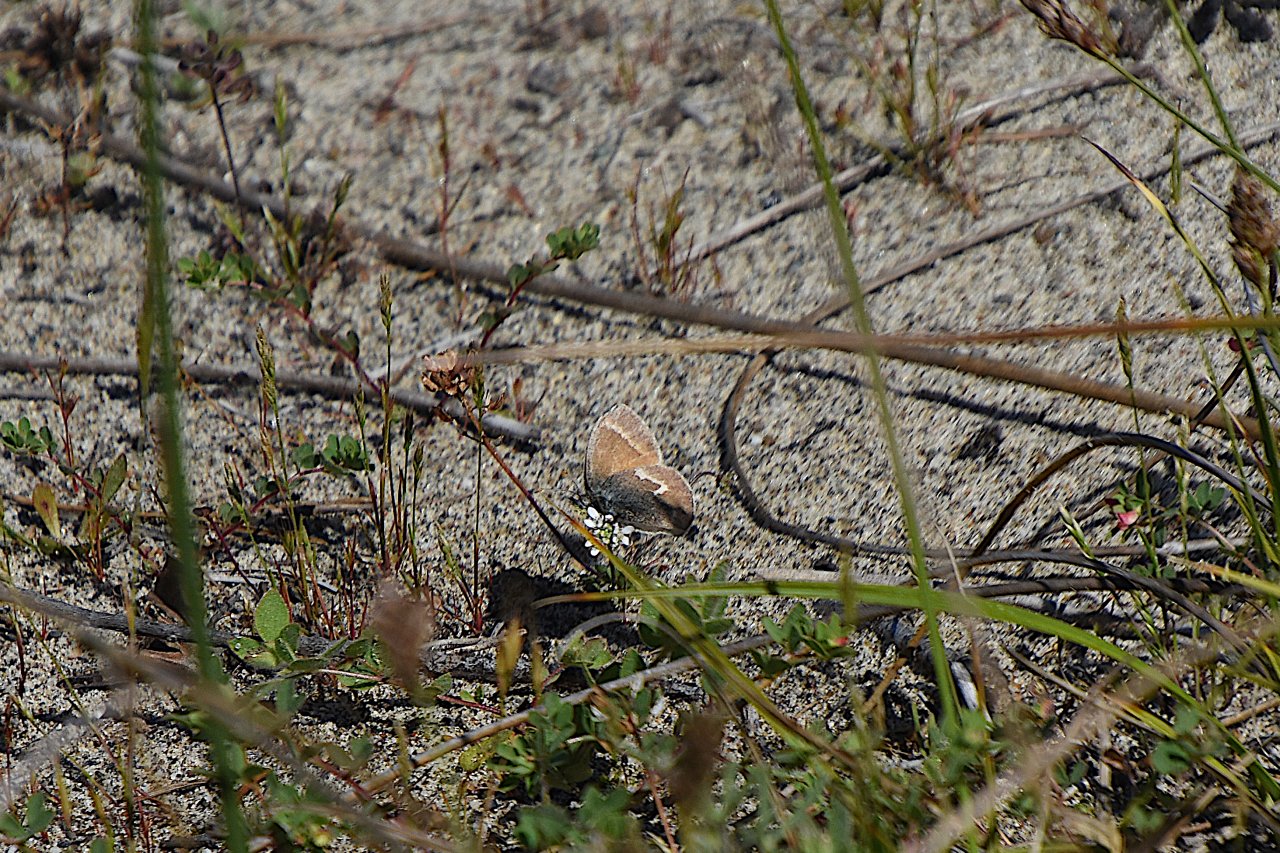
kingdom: Animalia
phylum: Arthropoda
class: Insecta
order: Lepidoptera
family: Nymphalidae
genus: Coenonympha
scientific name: Coenonympha tullia
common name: Large Heath
